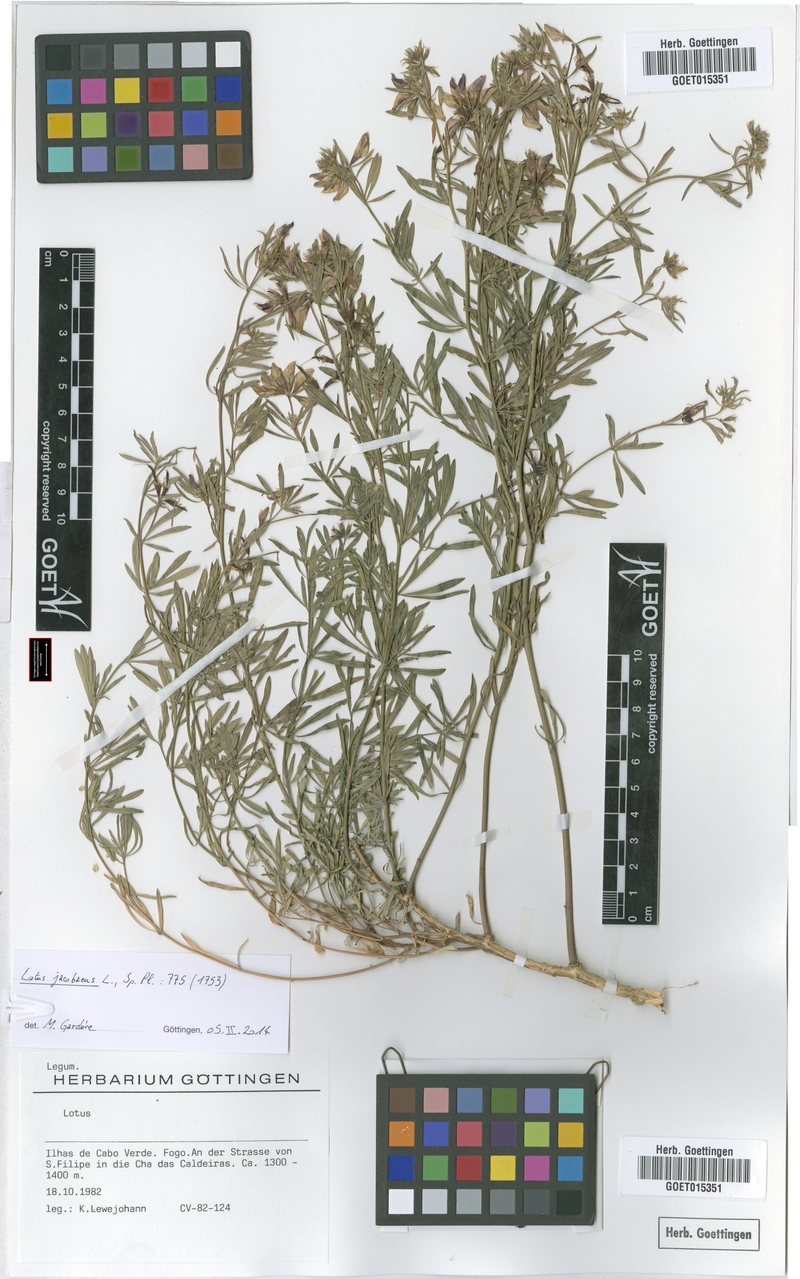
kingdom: Plantae
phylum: Tracheophyta
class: Magnoliopsida
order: Fabales
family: Fabaceae
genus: Lotus
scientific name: Lotus jacobaeus
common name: St. james's trefoil
